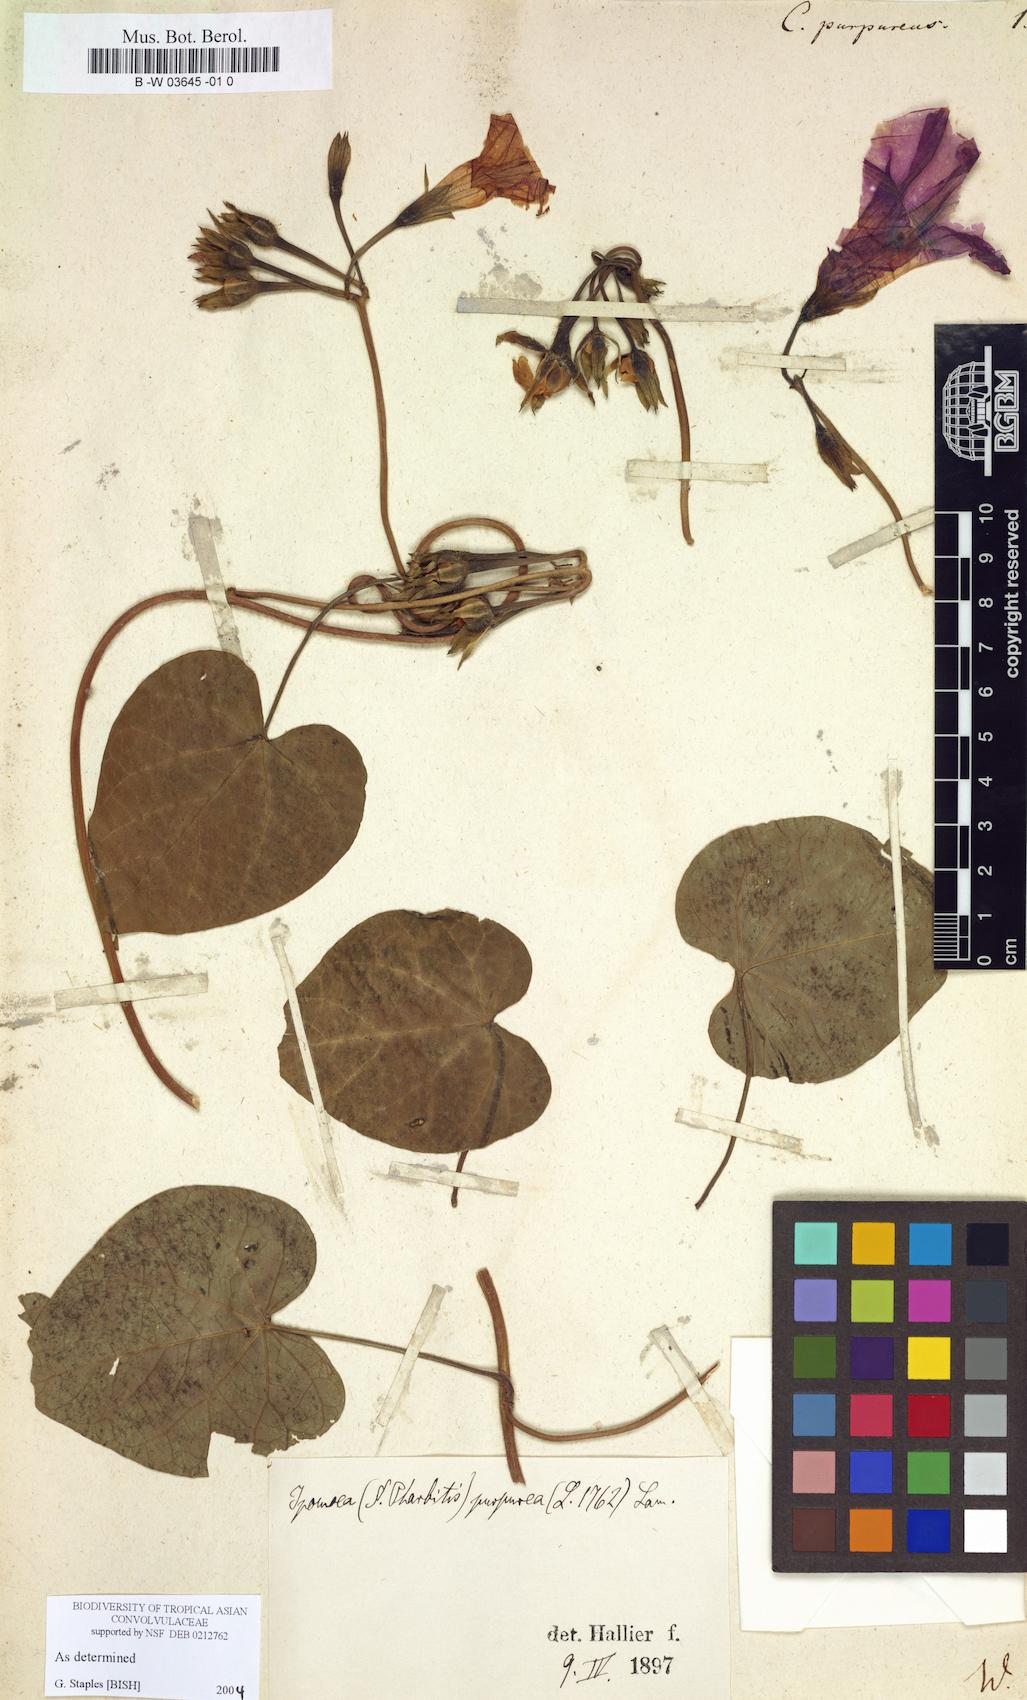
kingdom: Plantae
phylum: Tracheophyta
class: Magnoliopsida
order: Solanales
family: Convolvulaceae
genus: Ipomoea
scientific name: Ipomoea purpurea
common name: Common morning-glory
